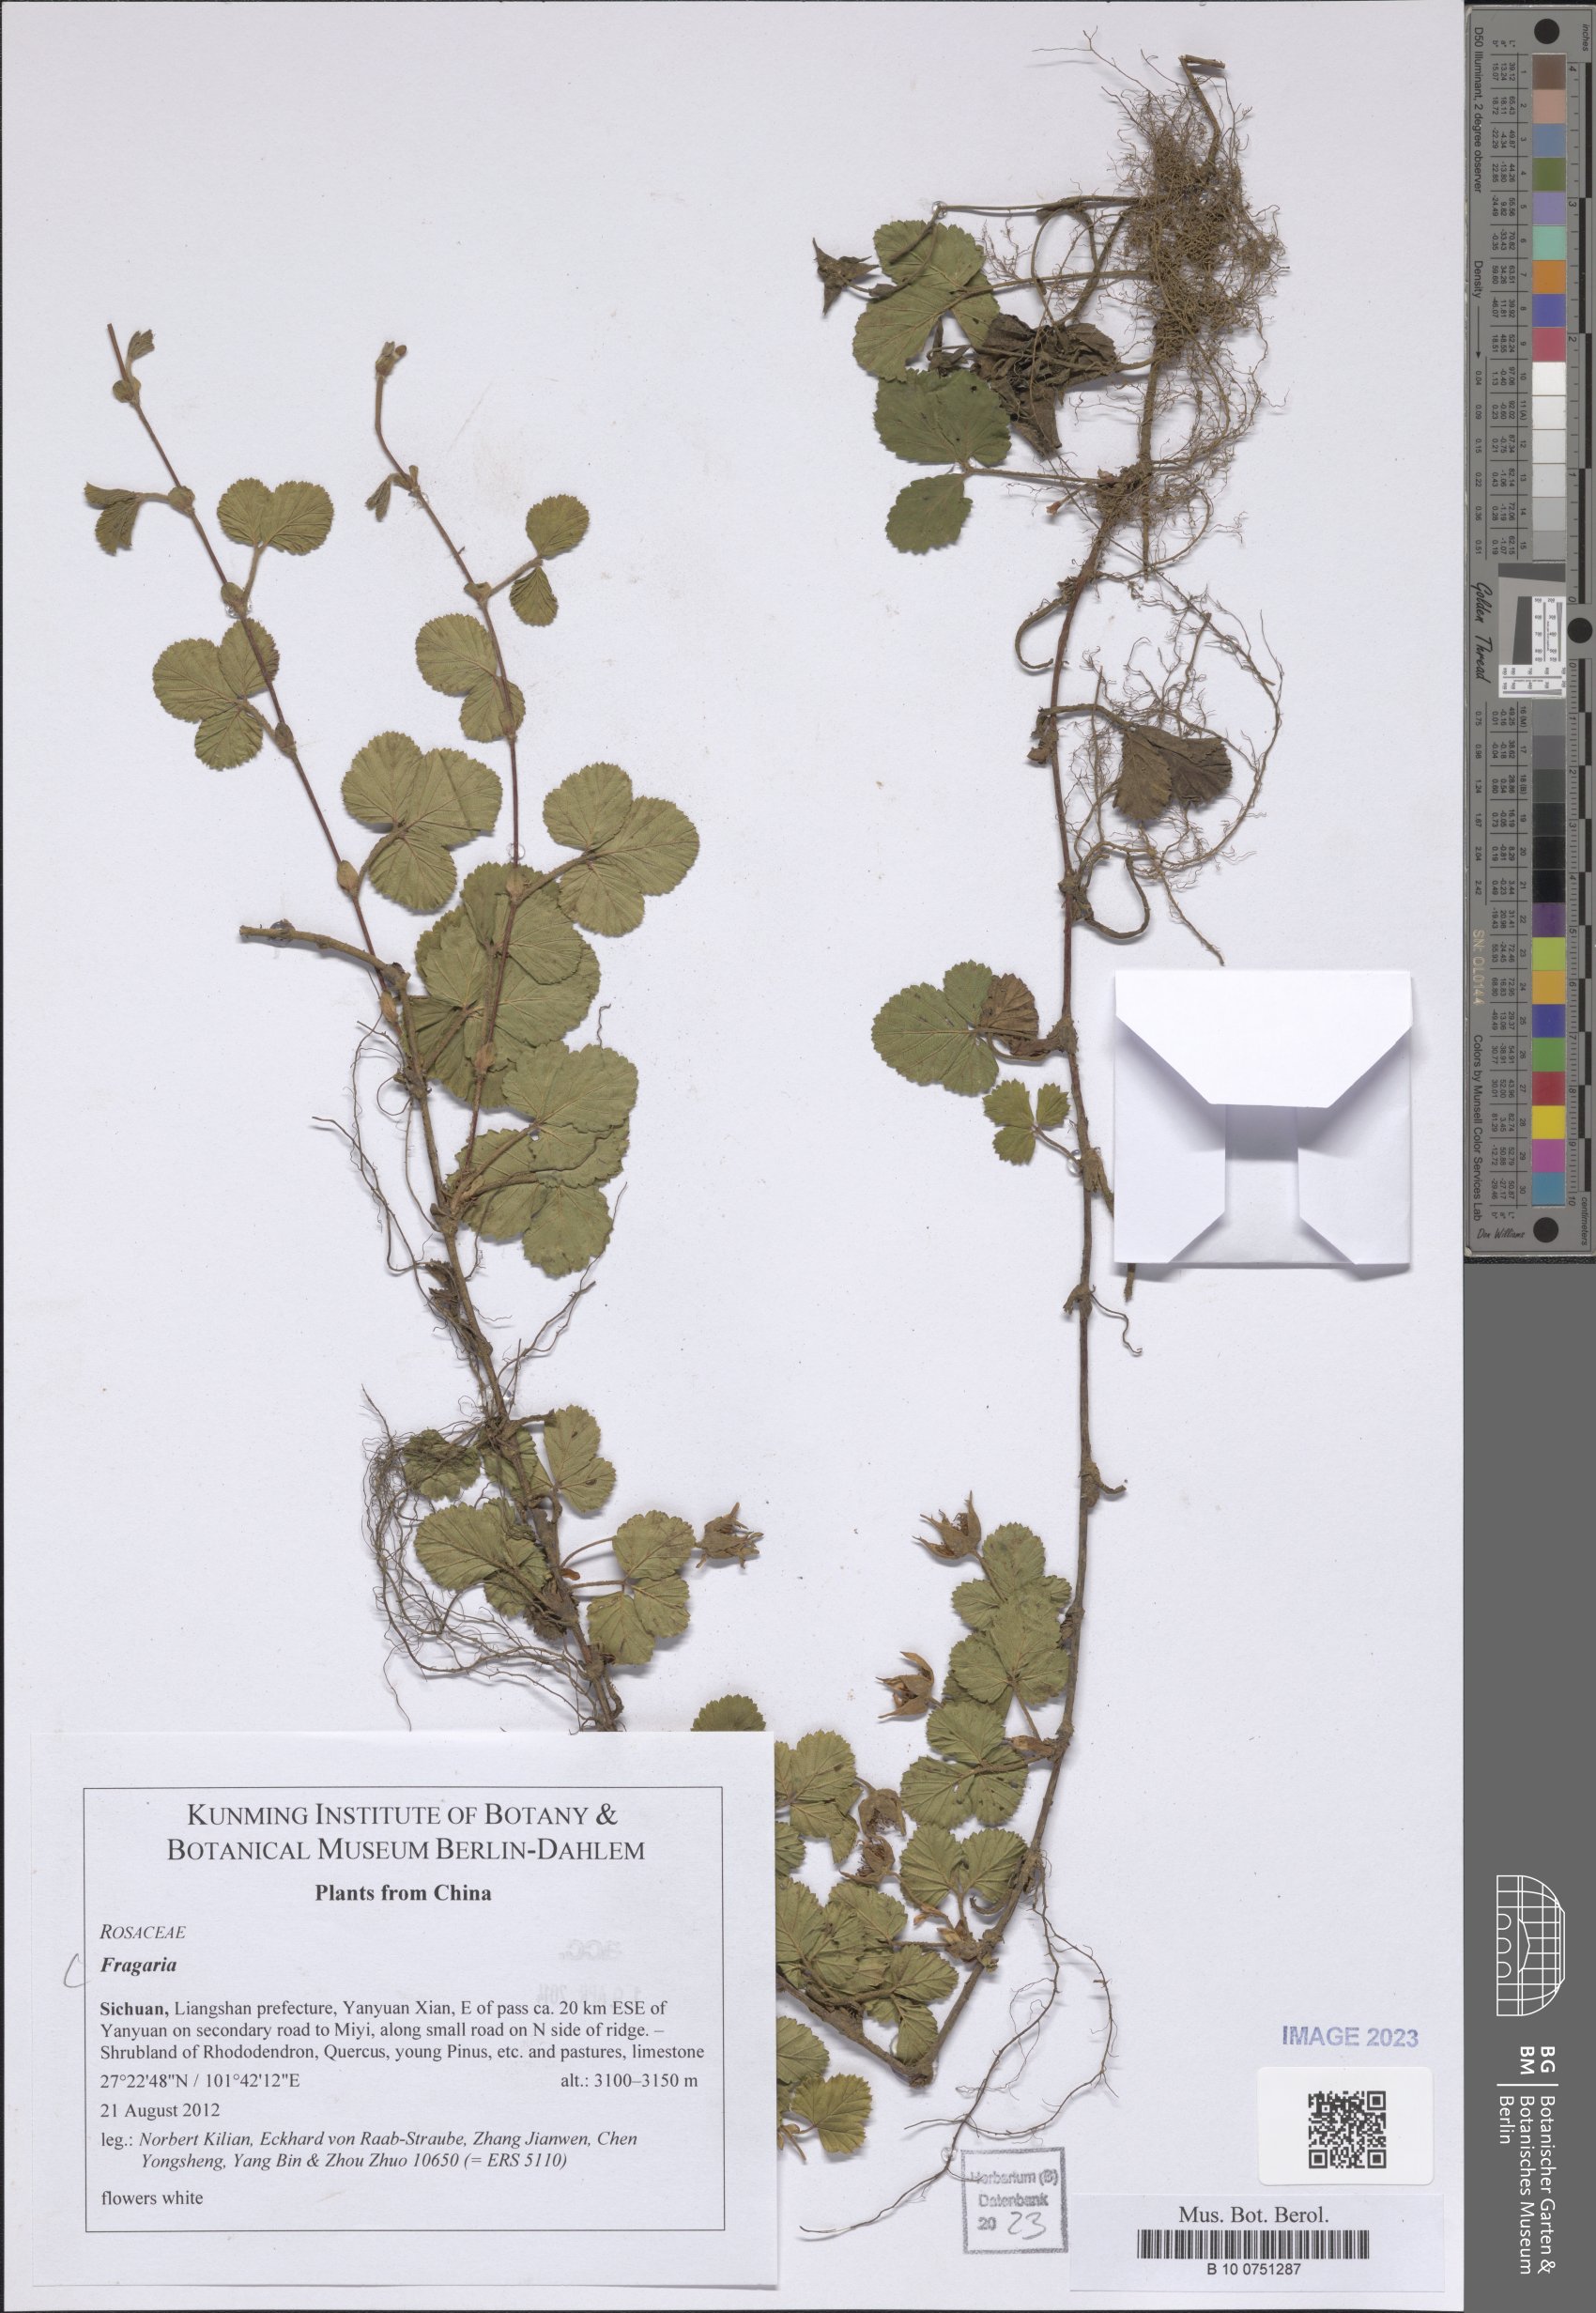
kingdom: Plantae
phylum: Tracheophyta
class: Magnoliopsida
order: Rosales
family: Rosaceae
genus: Fragaria
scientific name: Fragaria
